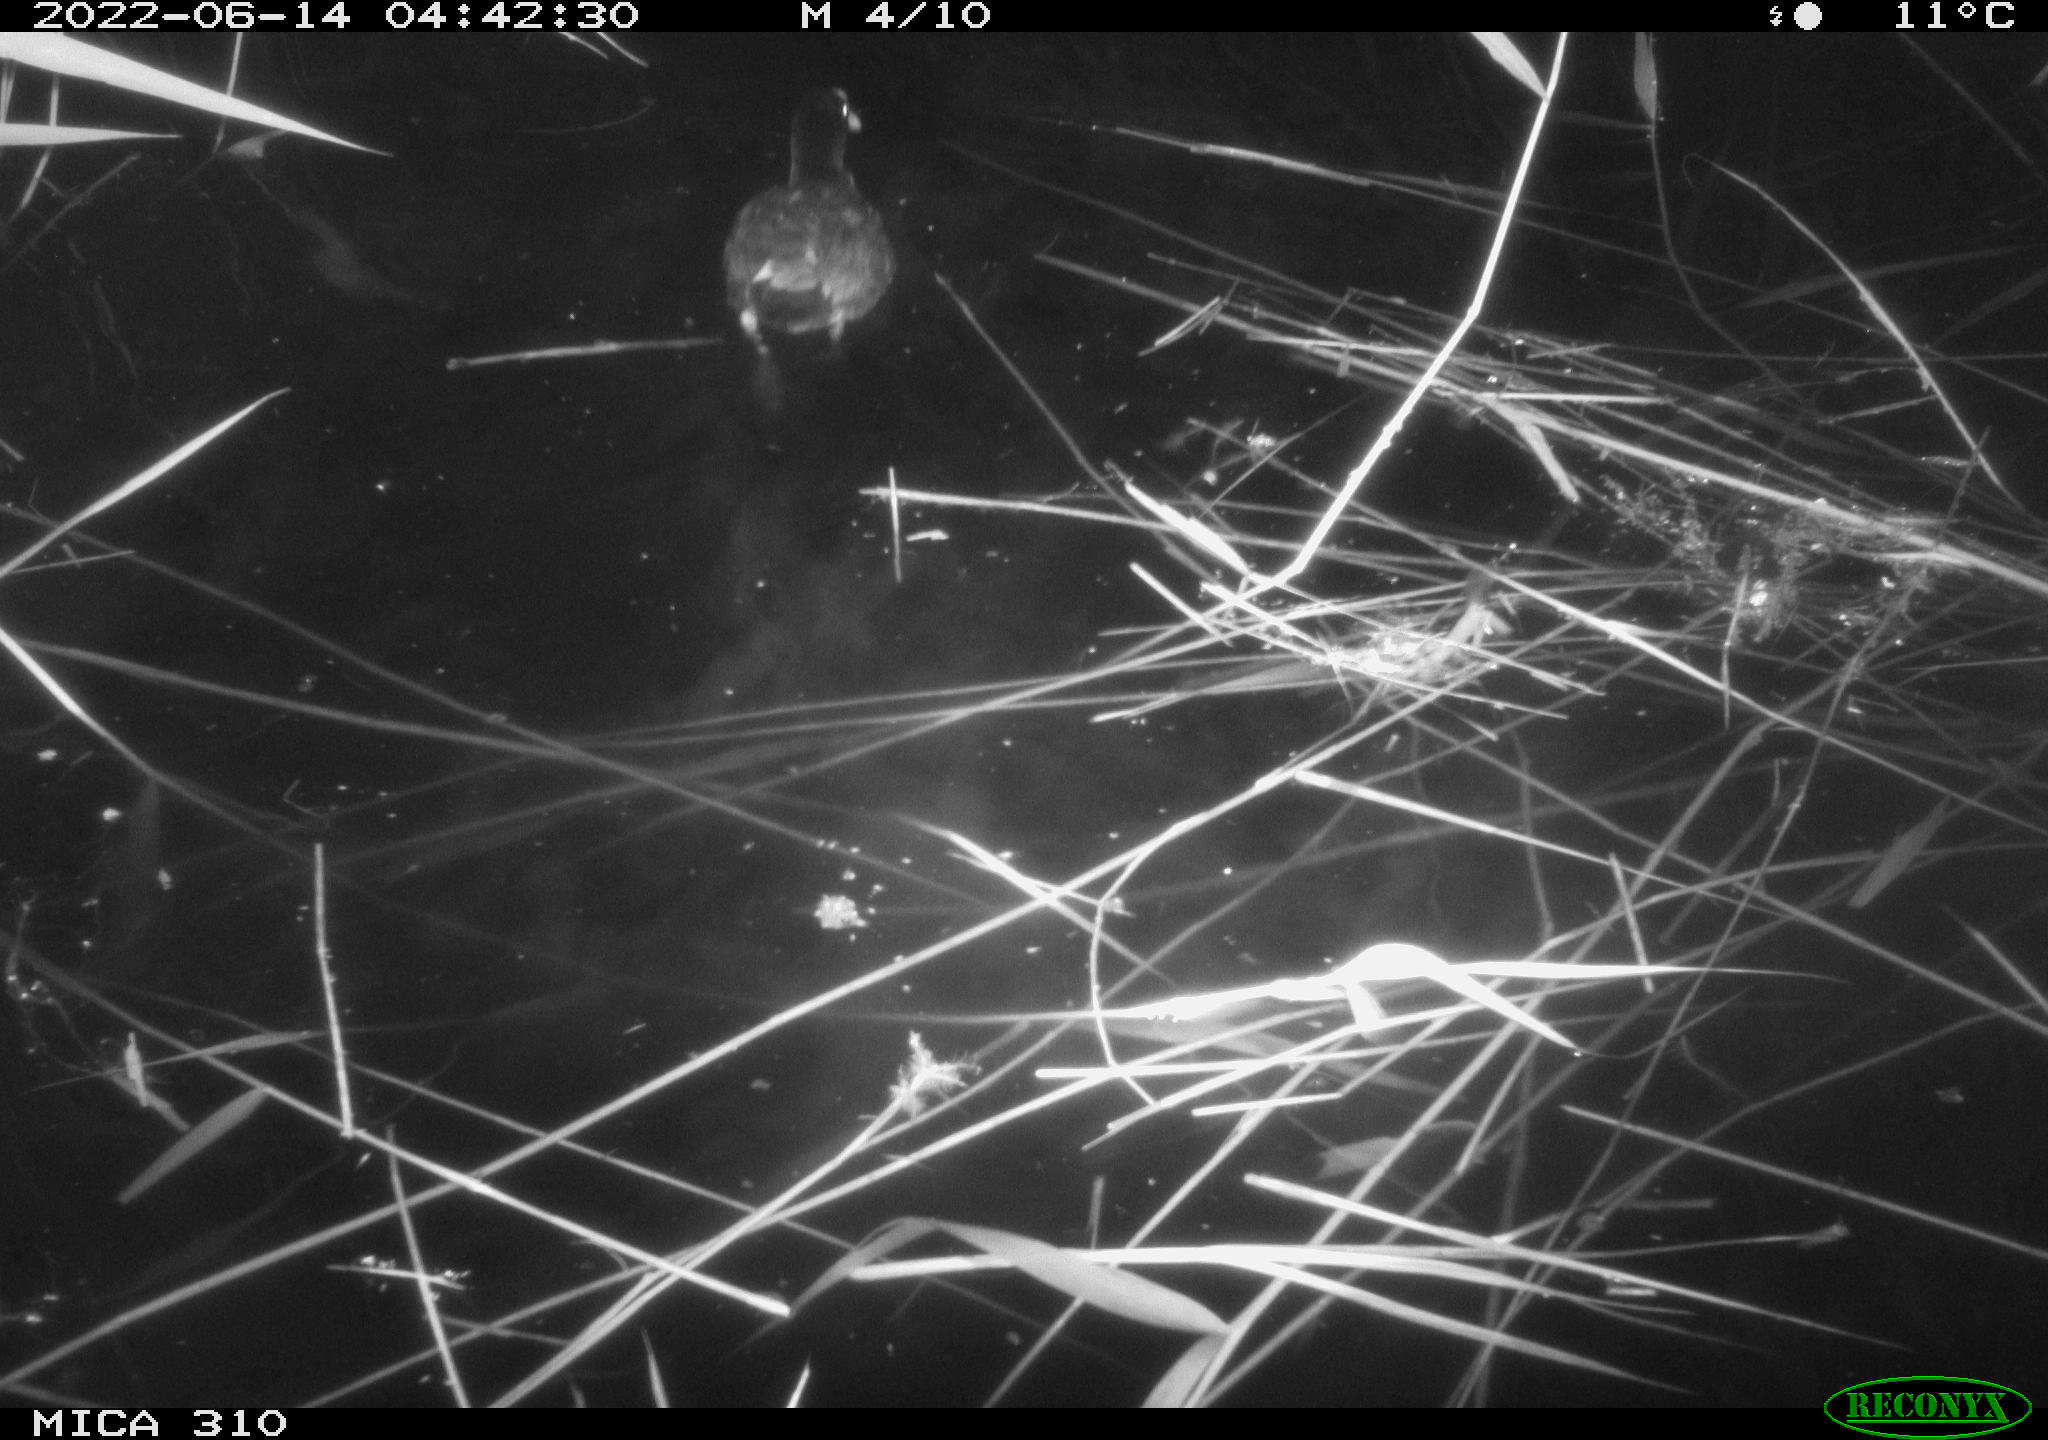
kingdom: Animalia
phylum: Chordata
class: Aves
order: Gruiformes
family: Rallidae
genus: Fulica
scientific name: Fulica atra
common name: Eurasian coot
